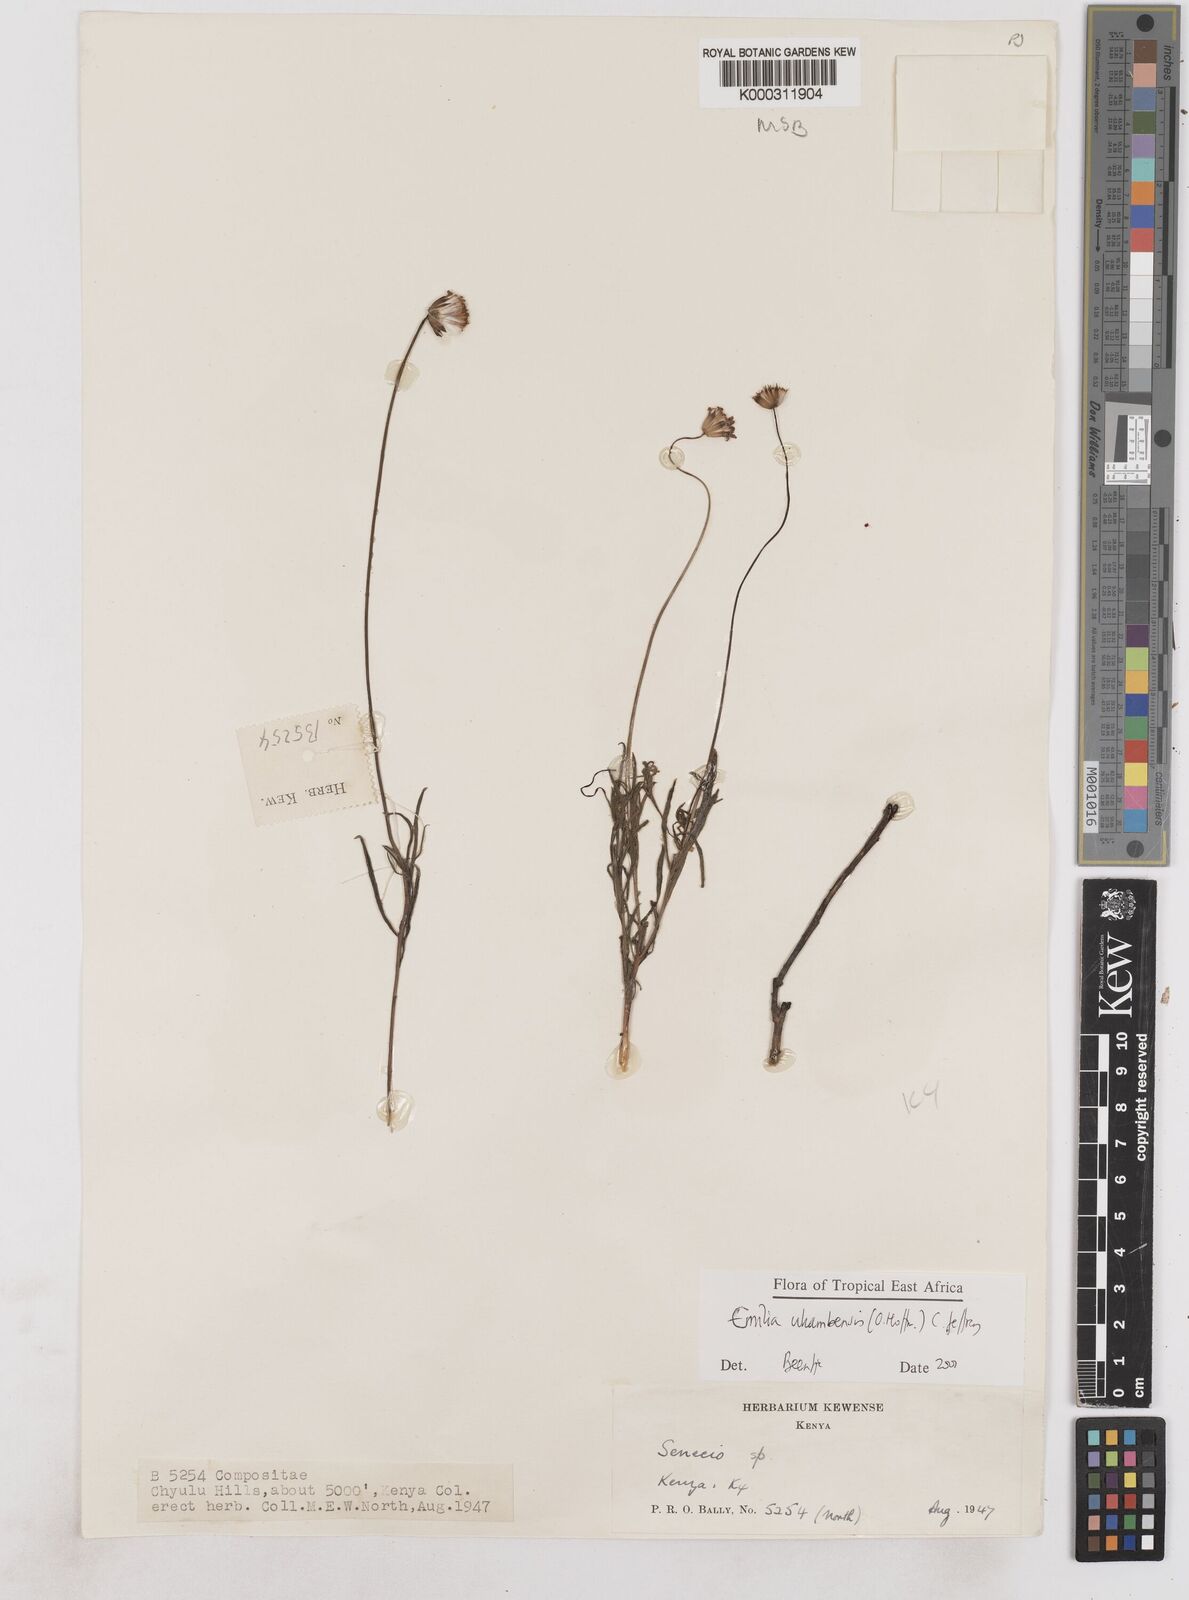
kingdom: Plantae
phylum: Tracheophyta
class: Magnoliopsida
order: Asterales
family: Asteraceae
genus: Emilia
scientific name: Emilia ukambensis
